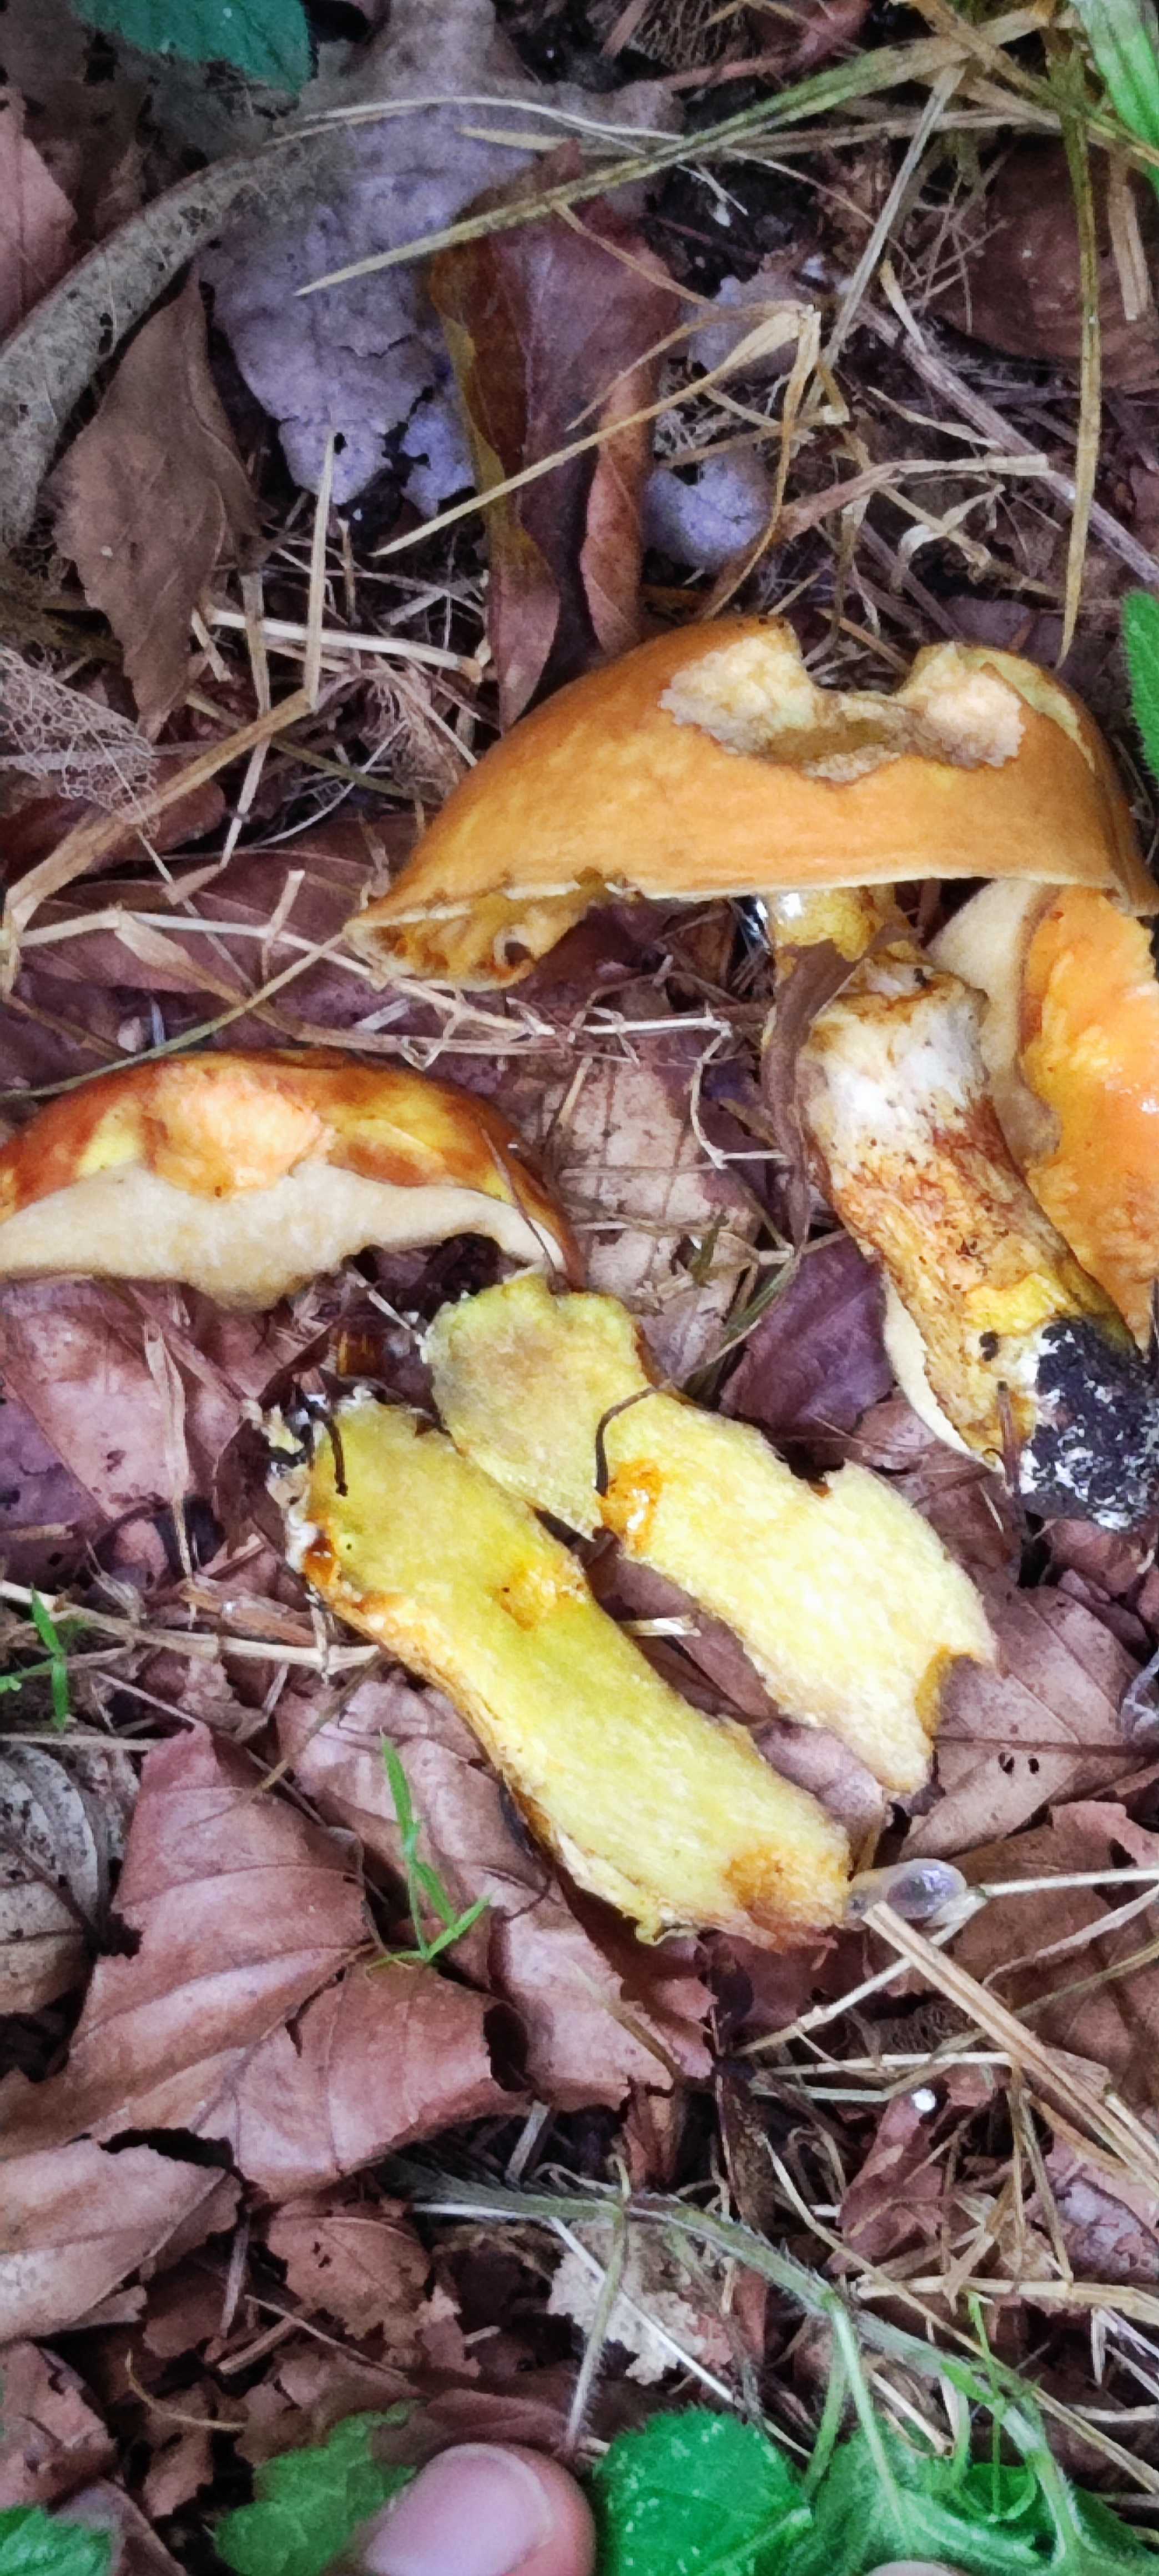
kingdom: Fungi
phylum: Basidiomycota
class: Agaricomycetes
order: Boletales
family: Suillaceae
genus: Suillus
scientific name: Suillus grevillei
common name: lærke-slimrørhat
